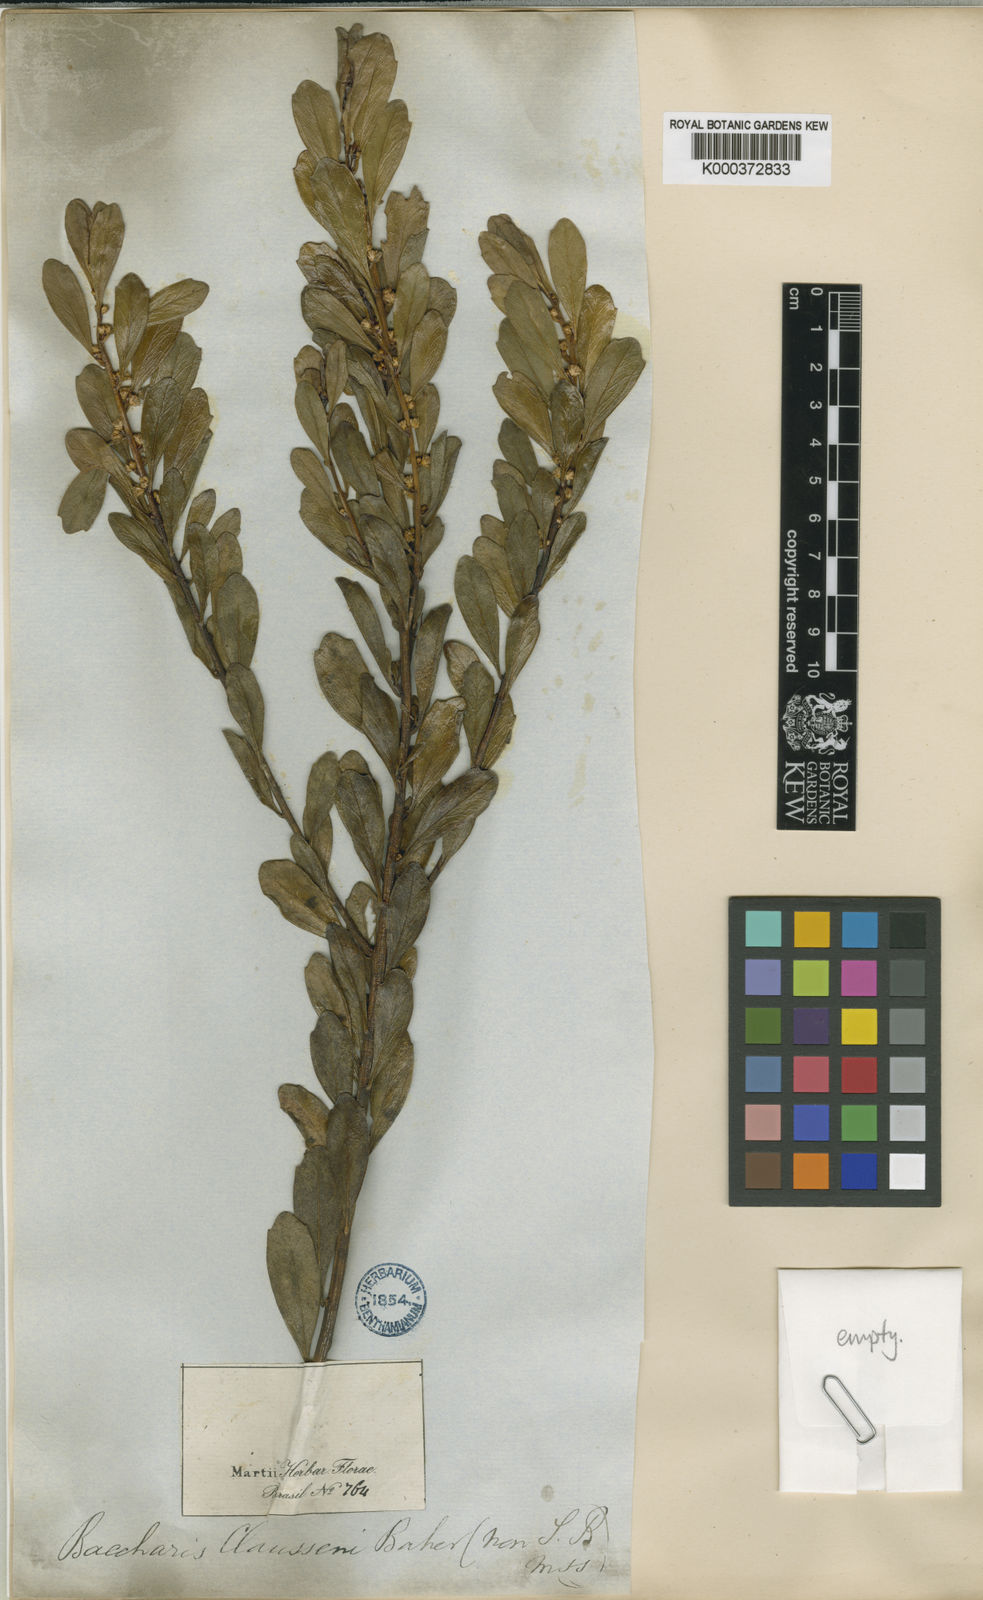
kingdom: Plantae
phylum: Tracheophyta
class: Magnoliopsida
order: Asterales
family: Asteraceae
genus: Baccharis
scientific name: Baccharis
